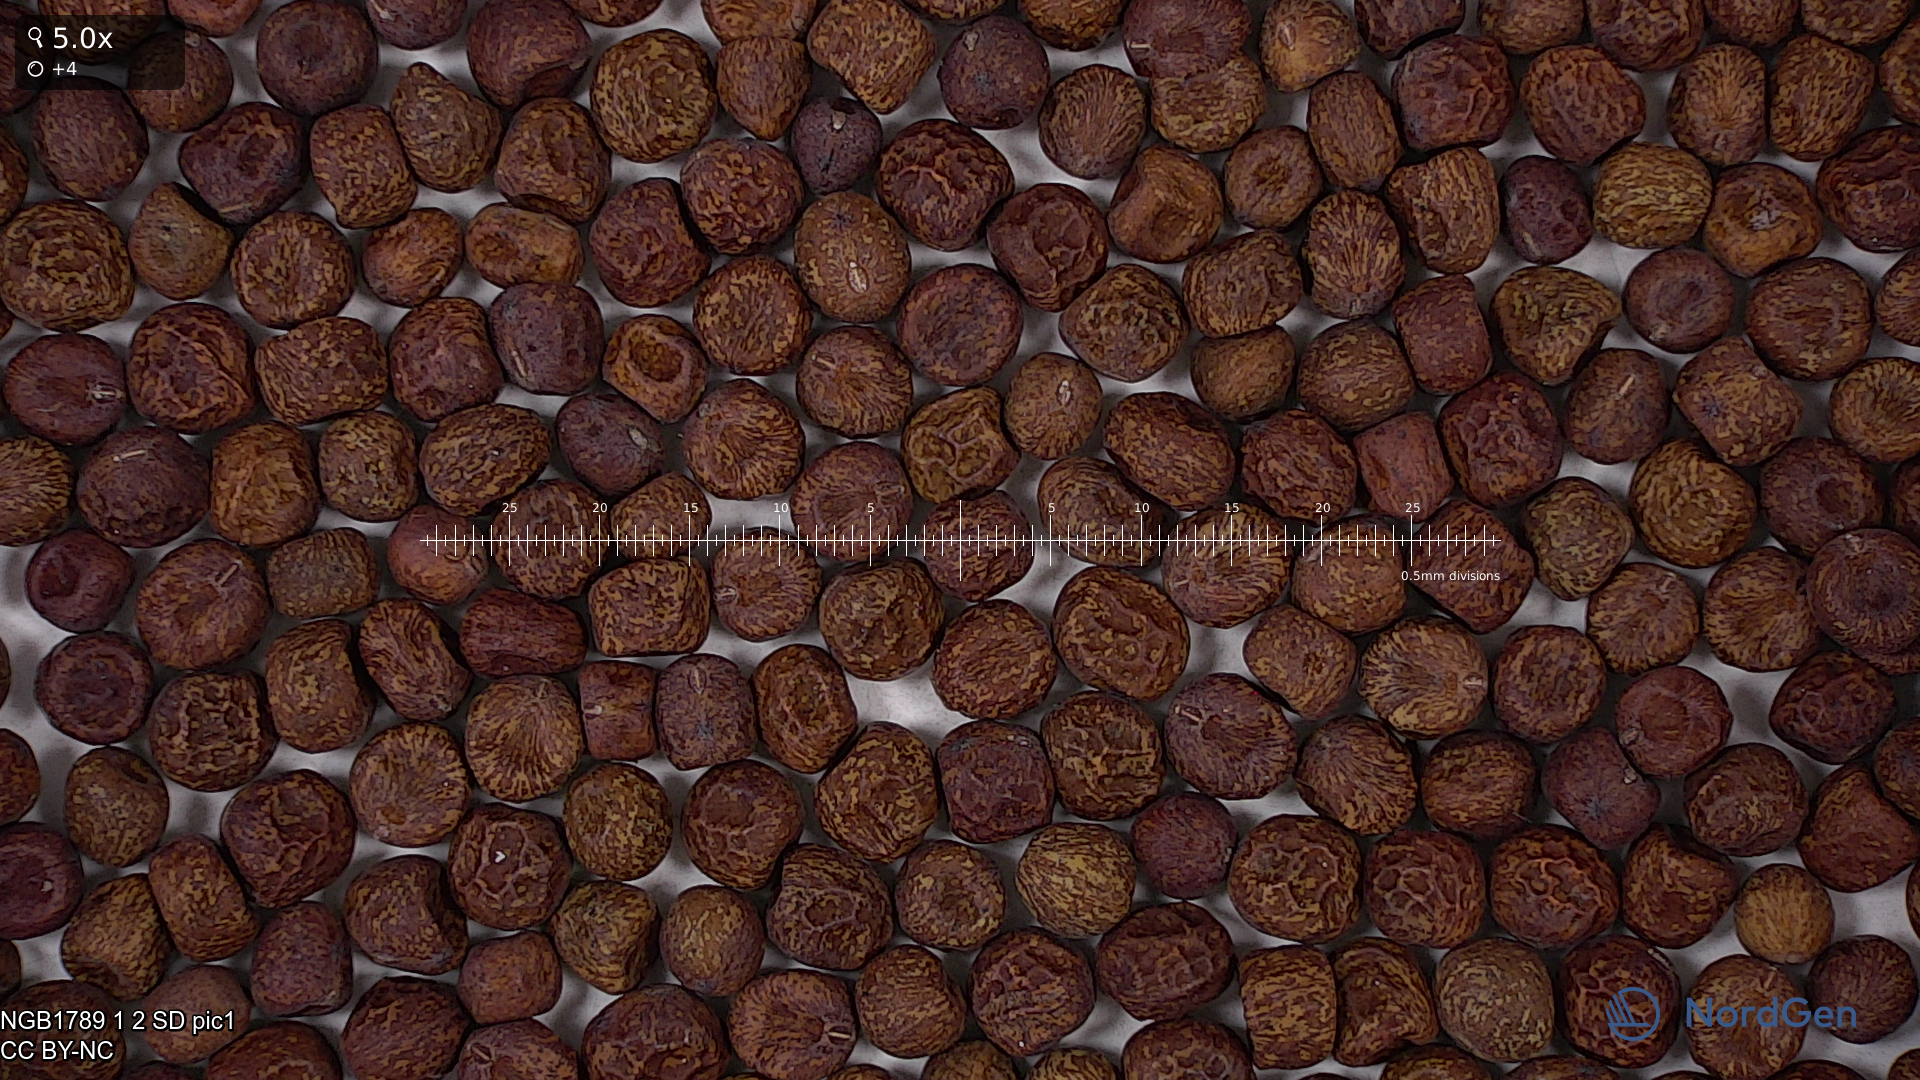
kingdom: Plantae
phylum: Tracheophyta
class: Magnoliopsida
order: Fabales
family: Fabaceae
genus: Lathyrus
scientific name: Lathyrus oleraceus
